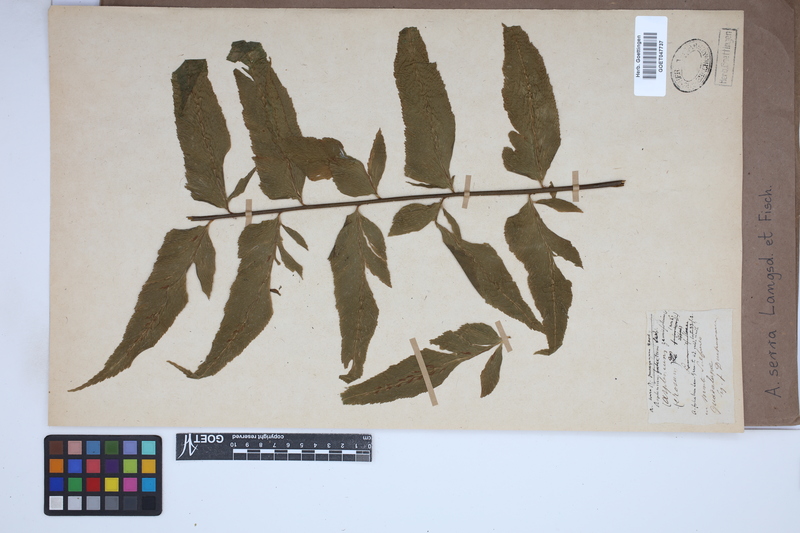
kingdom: Plantae
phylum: Tracheophyta
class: Polypodiopsida
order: Polypodiales
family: Aspleniaceae
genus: Asplenium
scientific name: Asplenium serra
